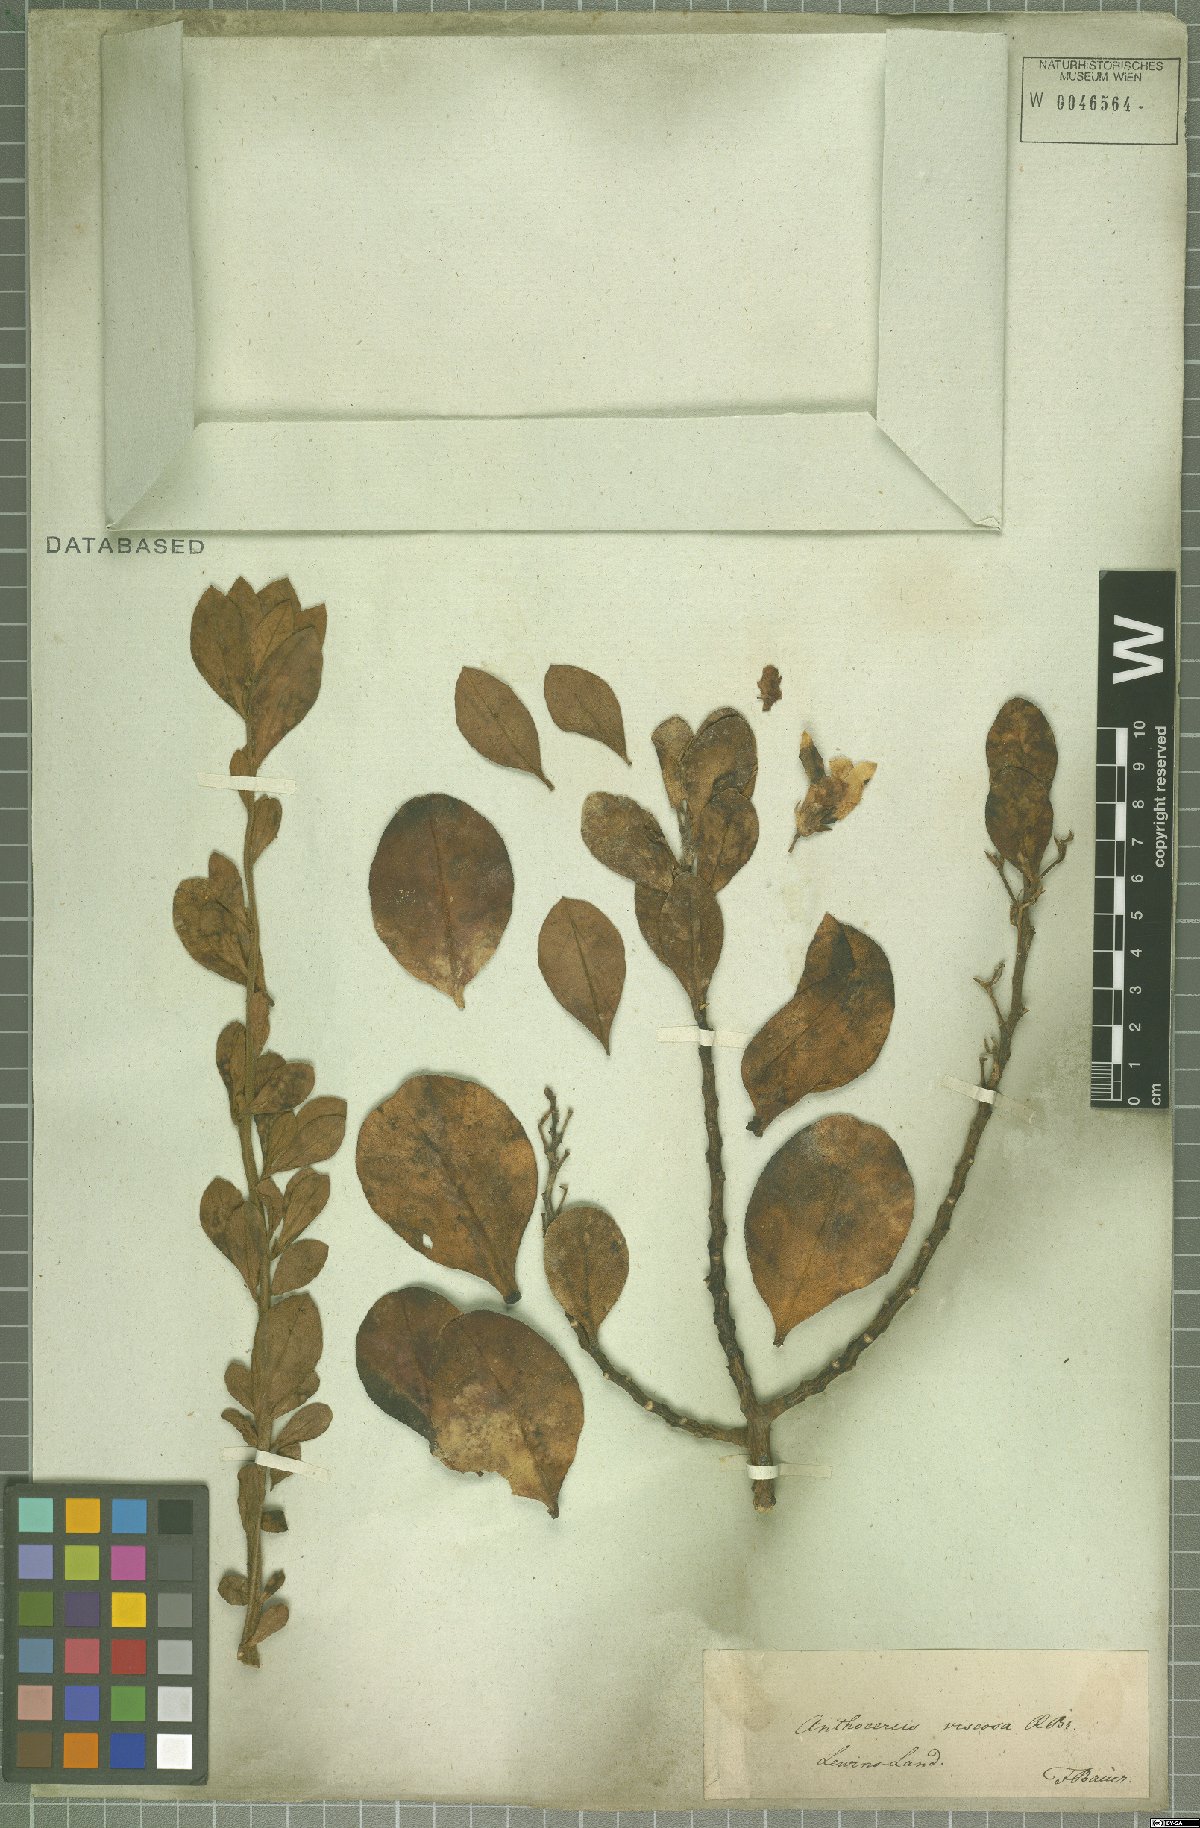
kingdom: Plantae
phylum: Tracheophyta
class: Magnoliopsida
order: Solanales
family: Solanaceae
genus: Anthocercis
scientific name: Anthocercis viscosa
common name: Sticky tailflower
